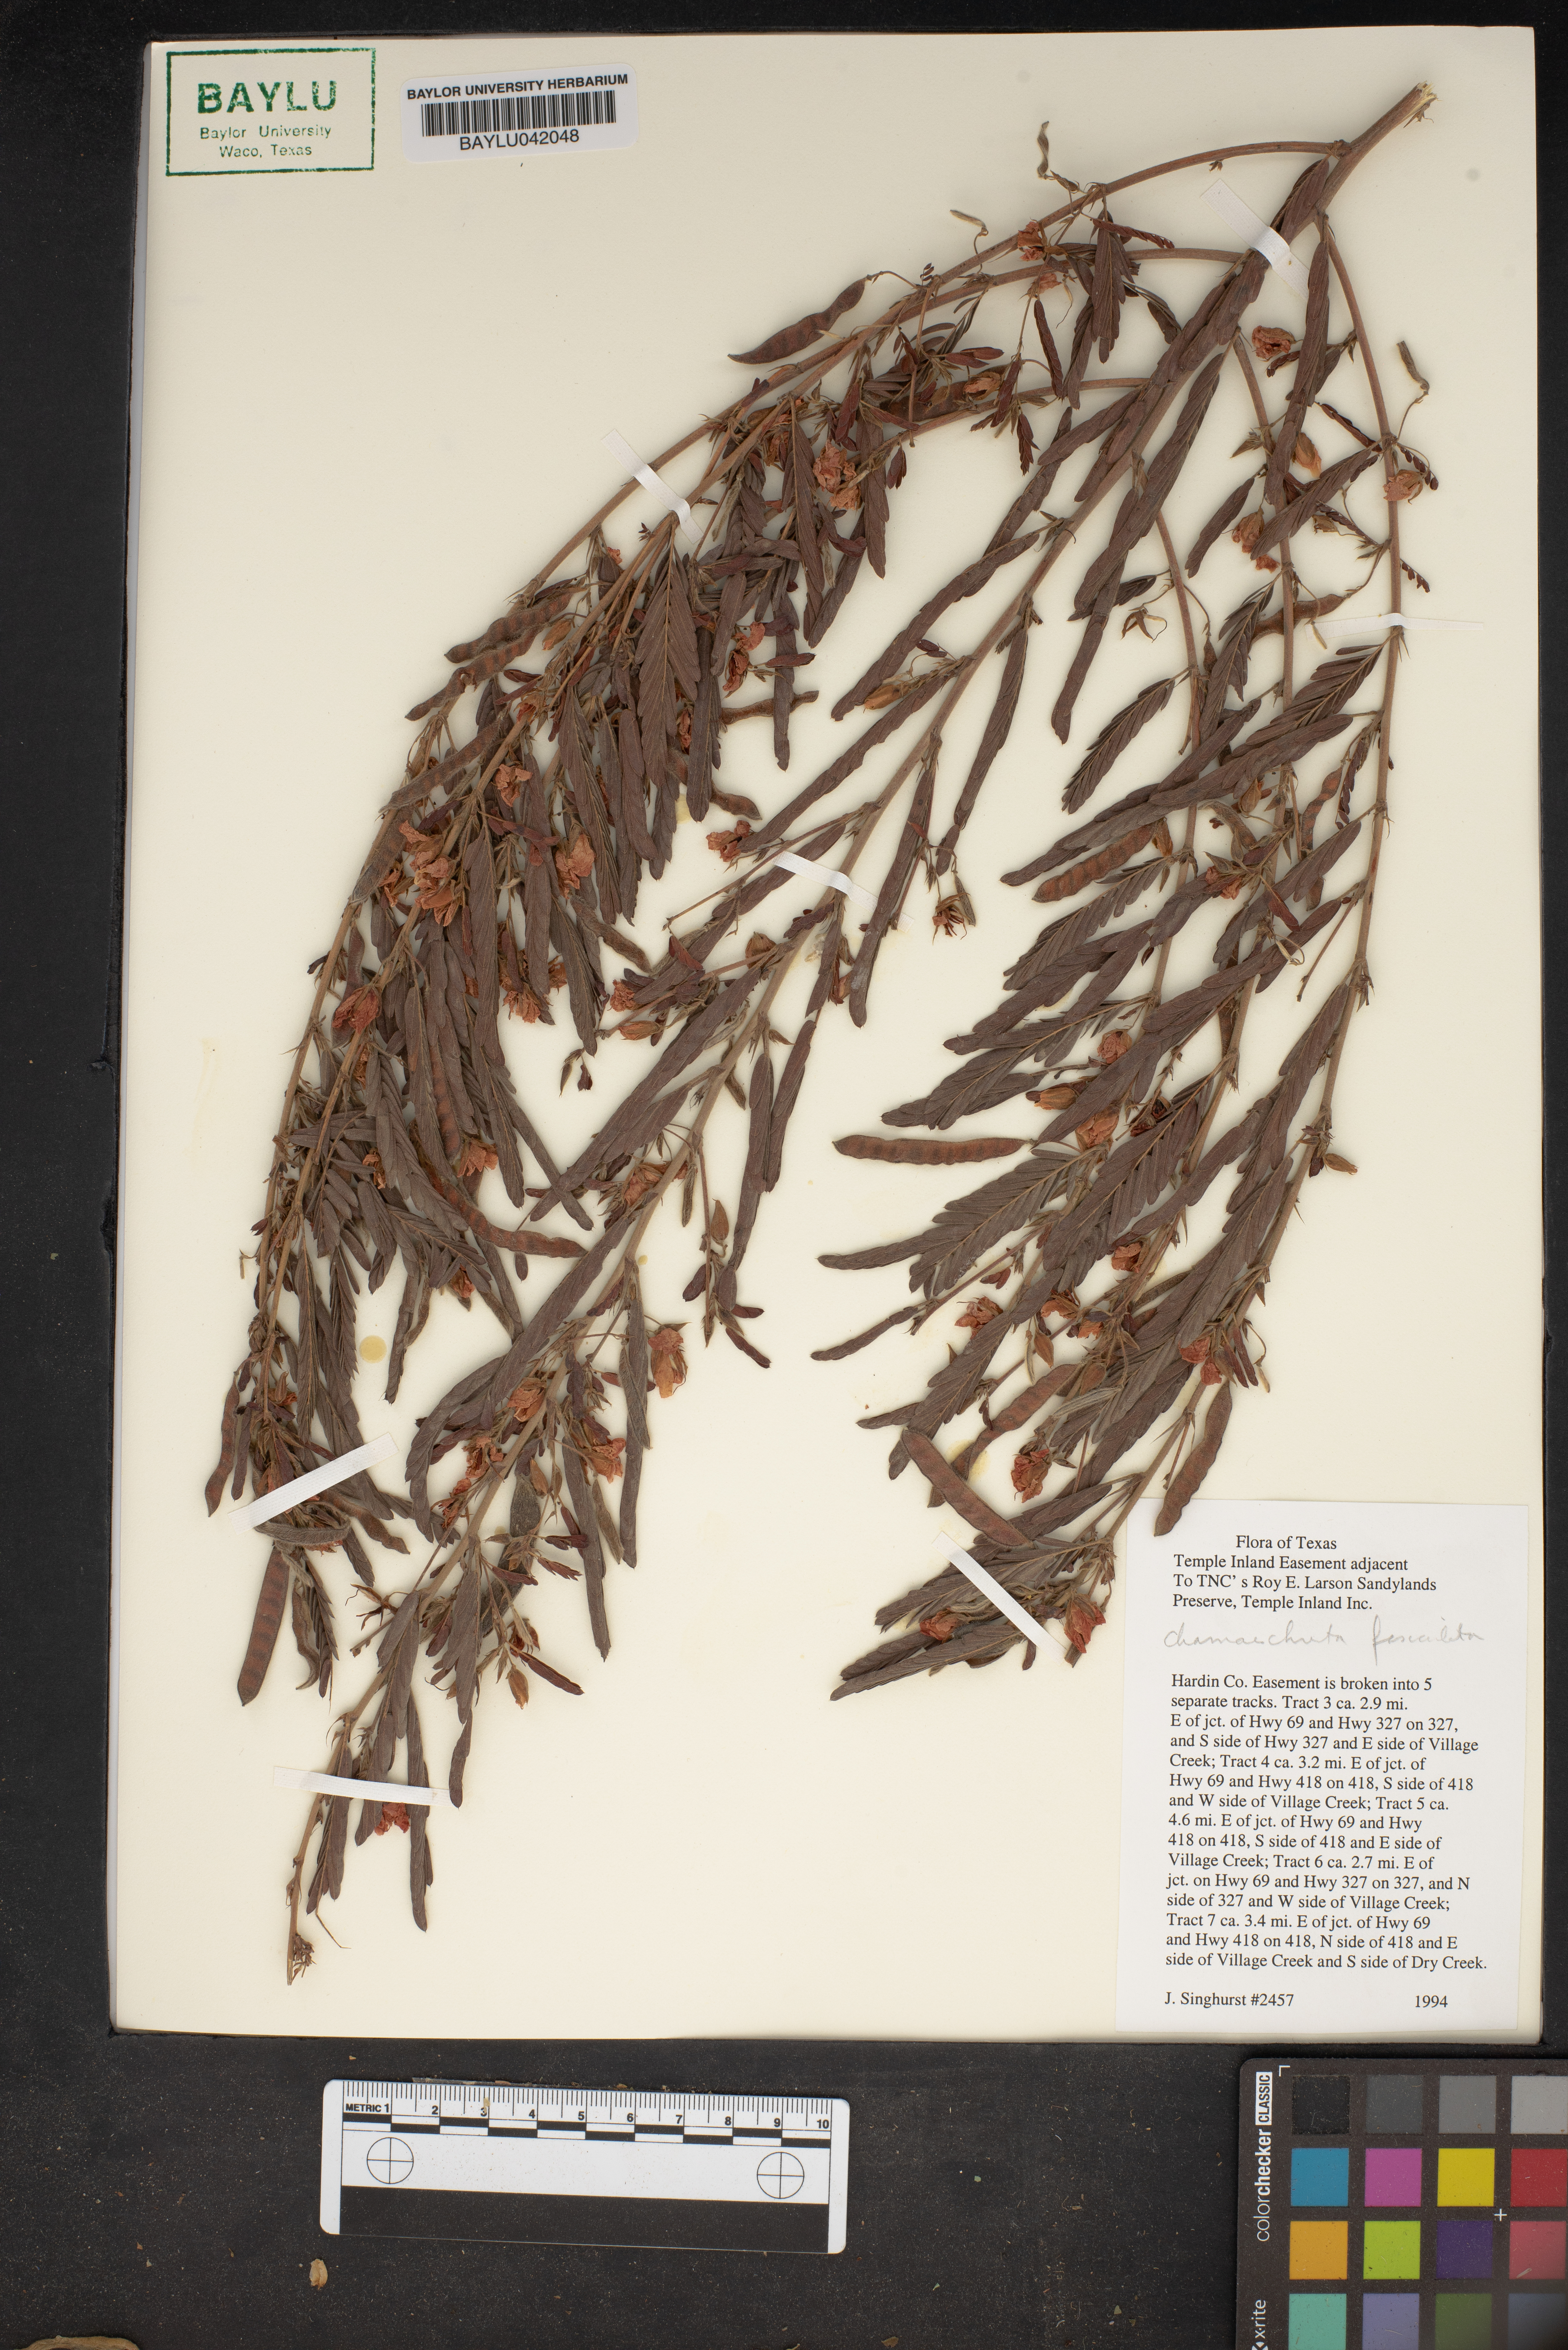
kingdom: Plantae
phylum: Tracheophyta
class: Magnoliopsida
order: Fabales
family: Fabaceae
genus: Chamaecrista
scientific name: Chamaecrista fasciculata
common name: Golden cassia
